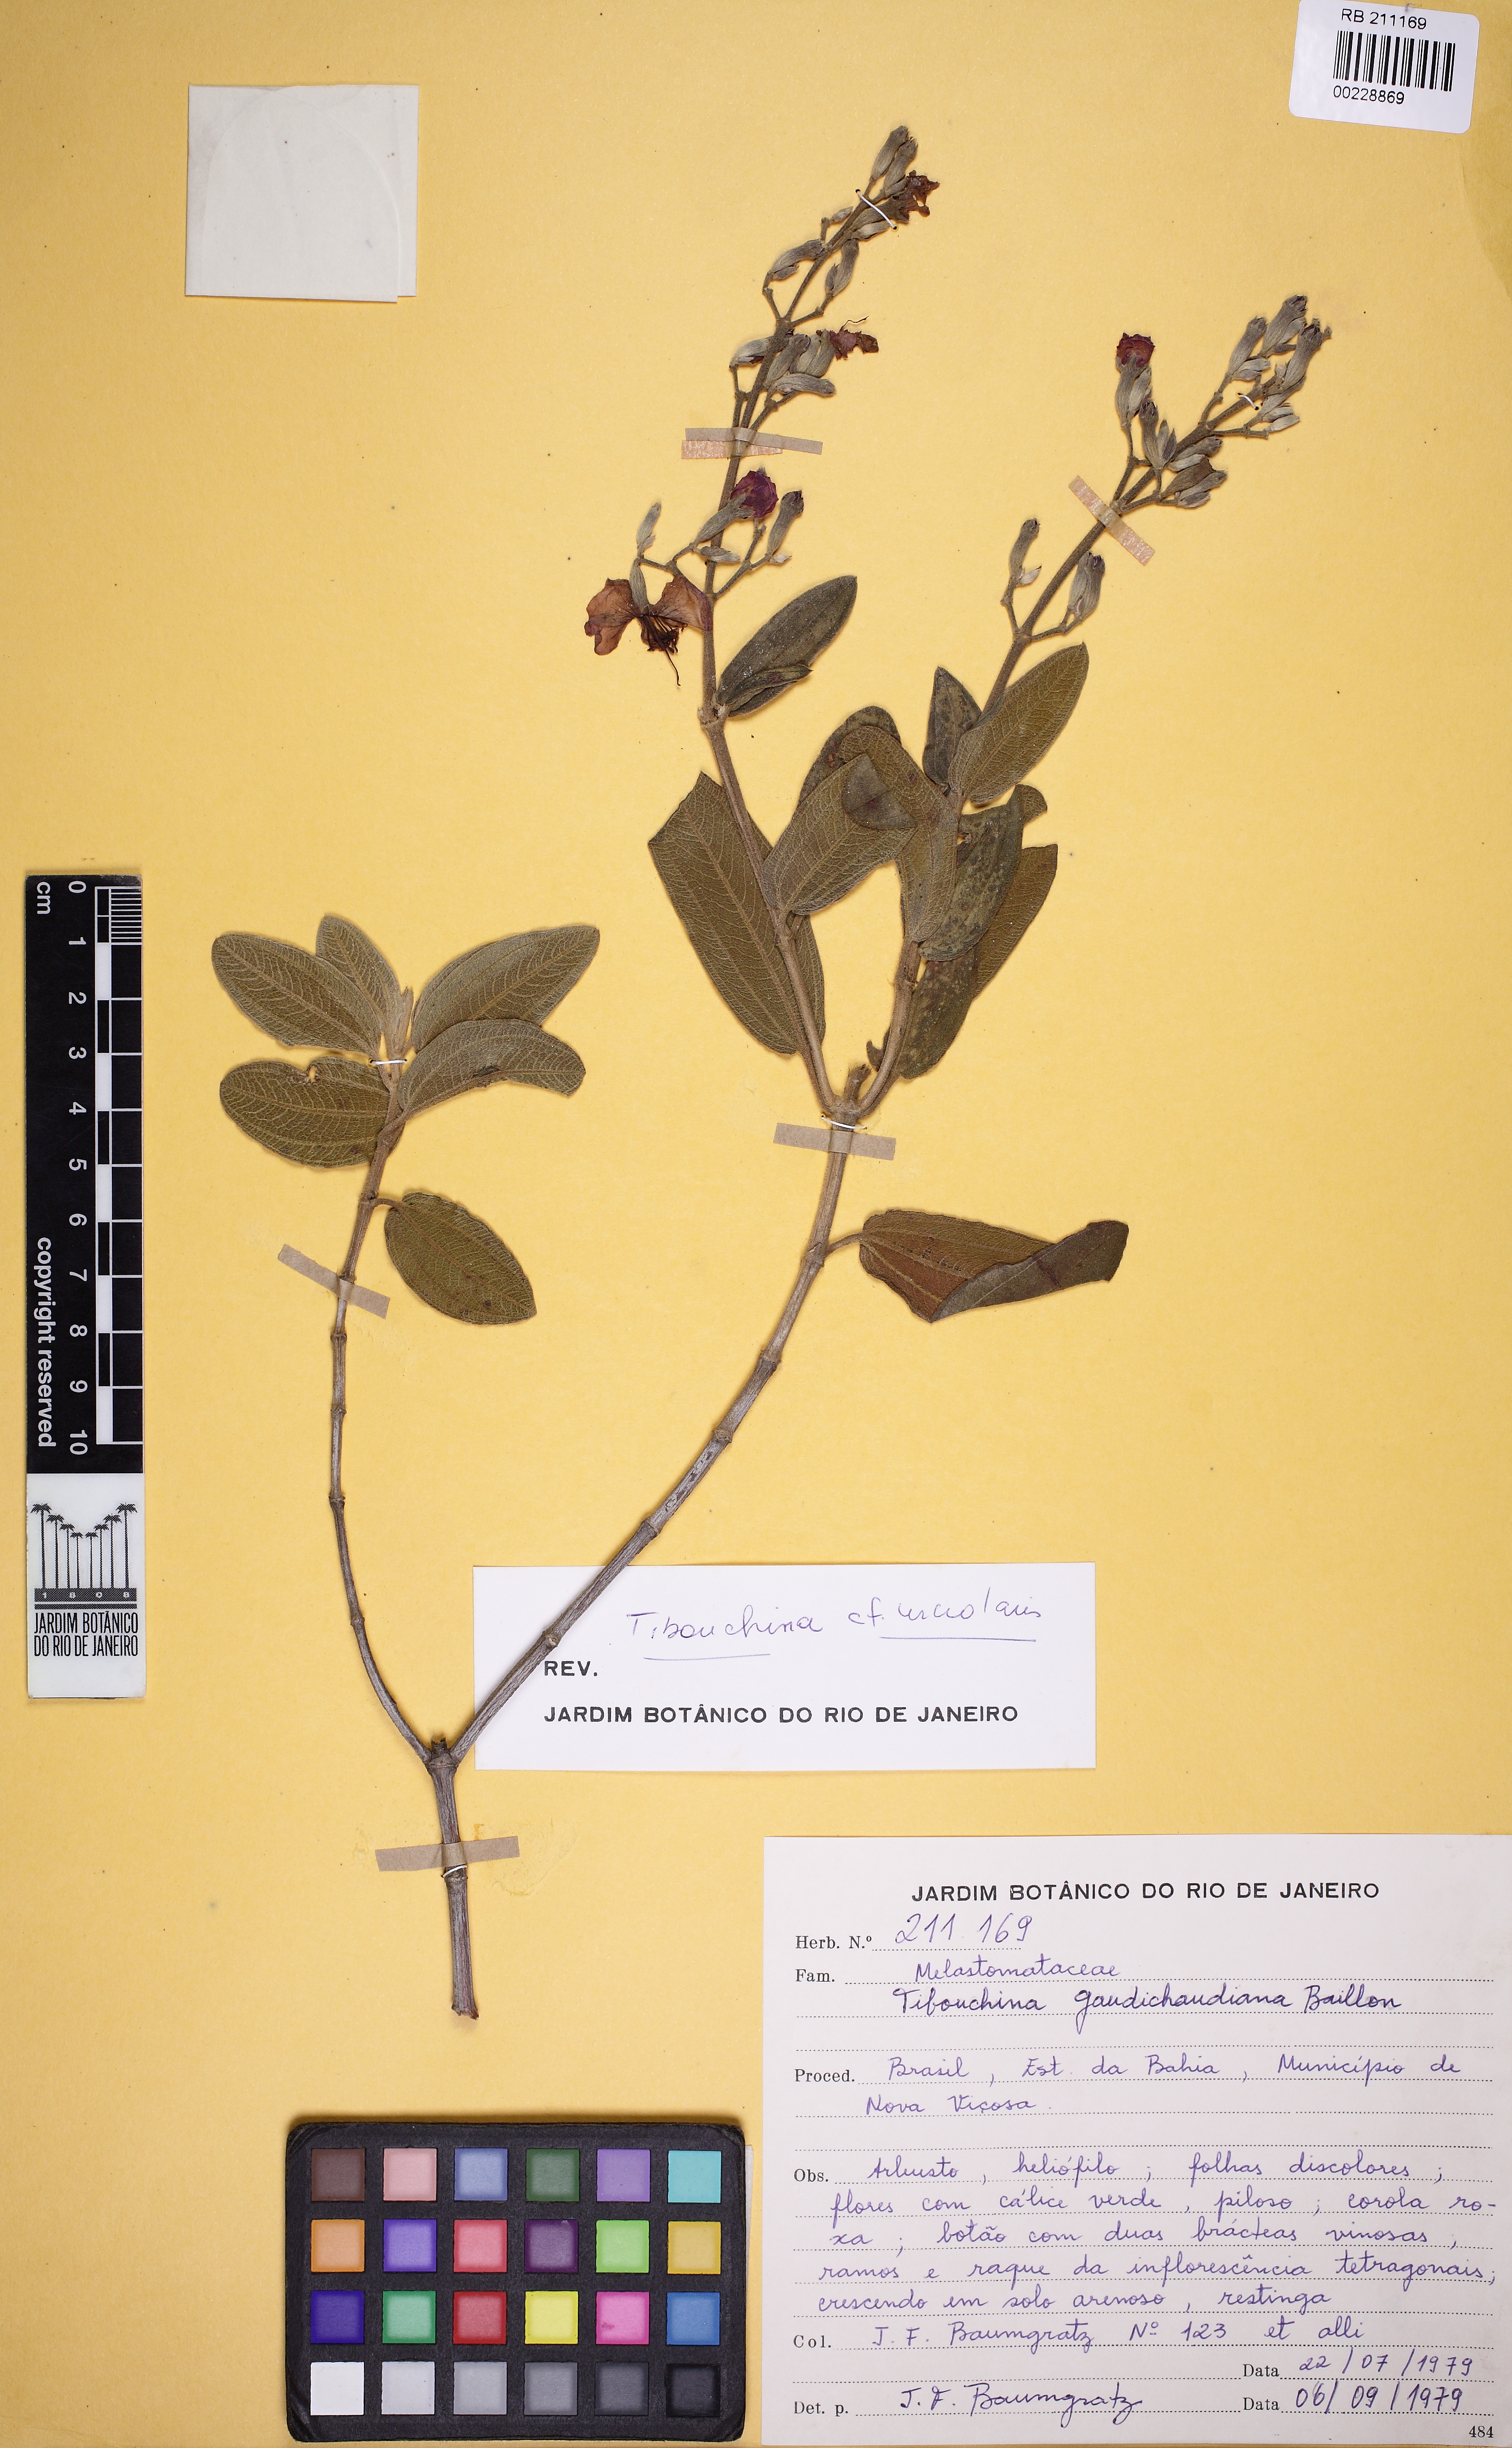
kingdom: Plantae
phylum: Tracheophyta
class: Magnoliopsida
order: Myrtales
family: Melastomataceae
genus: Pleroma
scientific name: Pleroma urceolare
